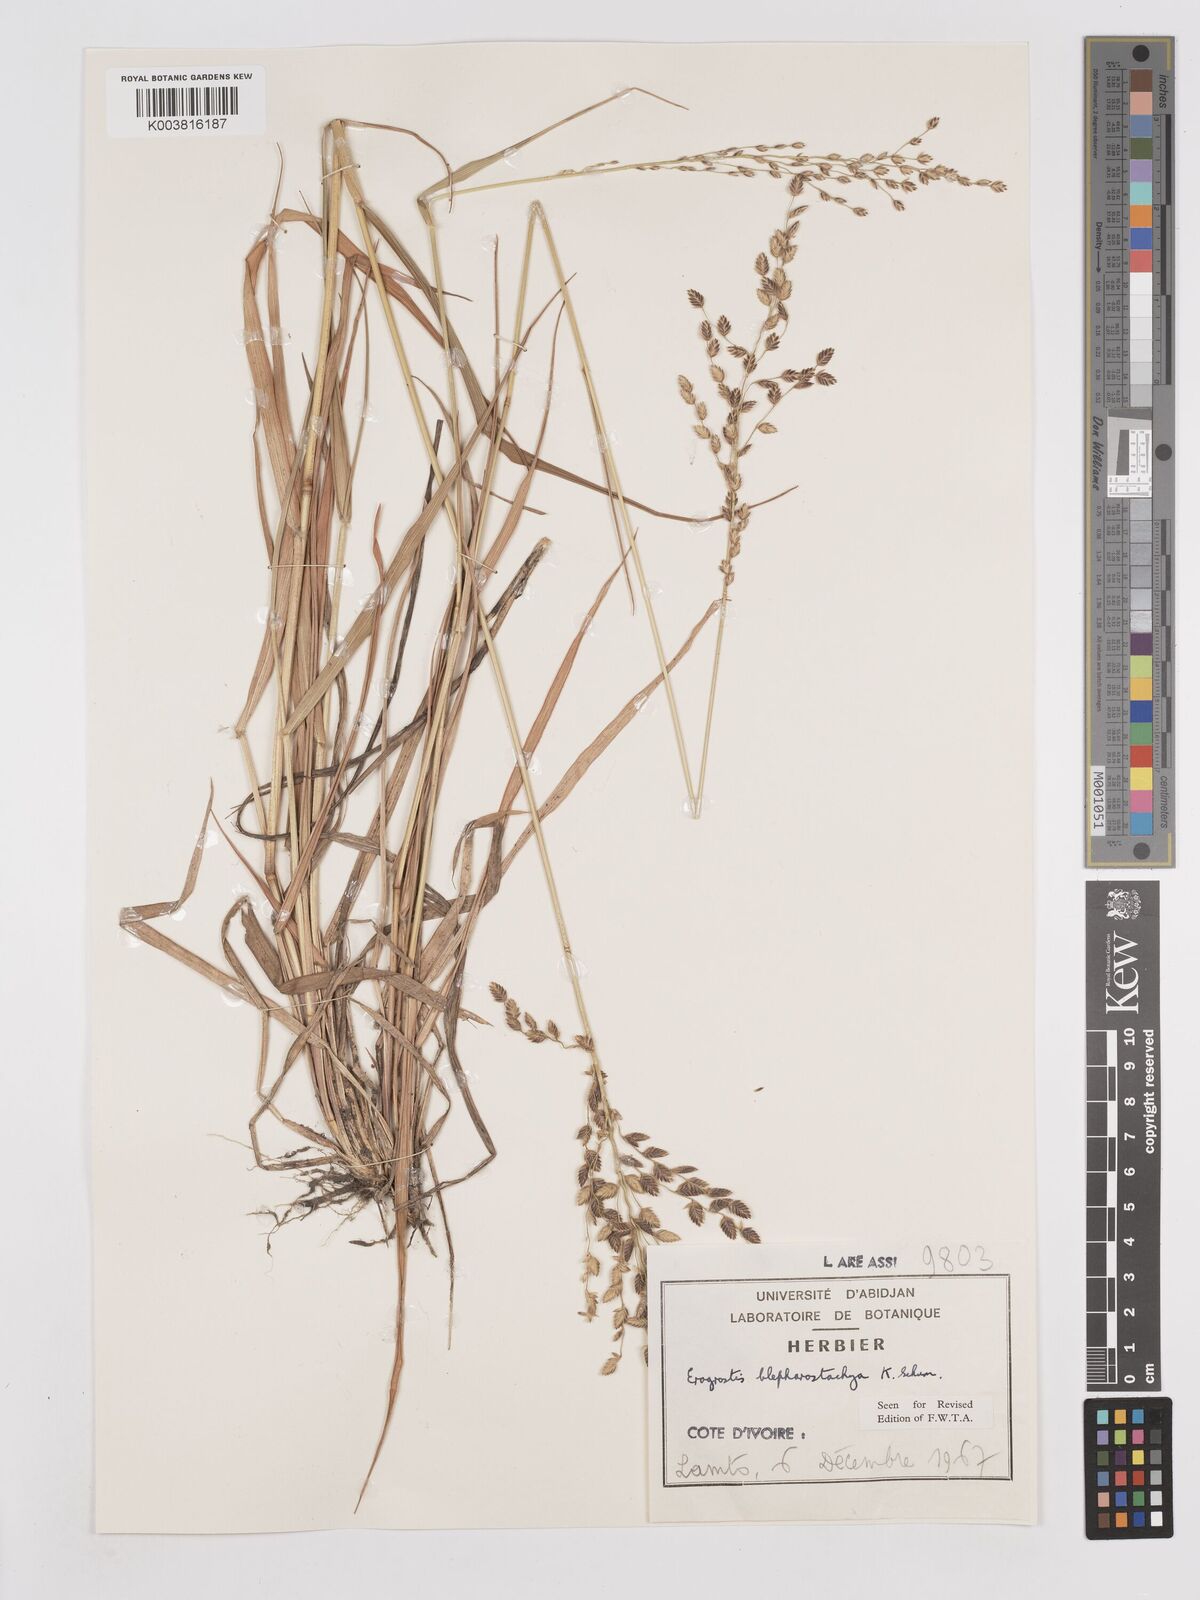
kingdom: Plantae
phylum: Tracheophyta
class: Liliopsida
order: Poales
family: Poaceae
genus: Eragrostis
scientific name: Eragrostis blepharostachya
